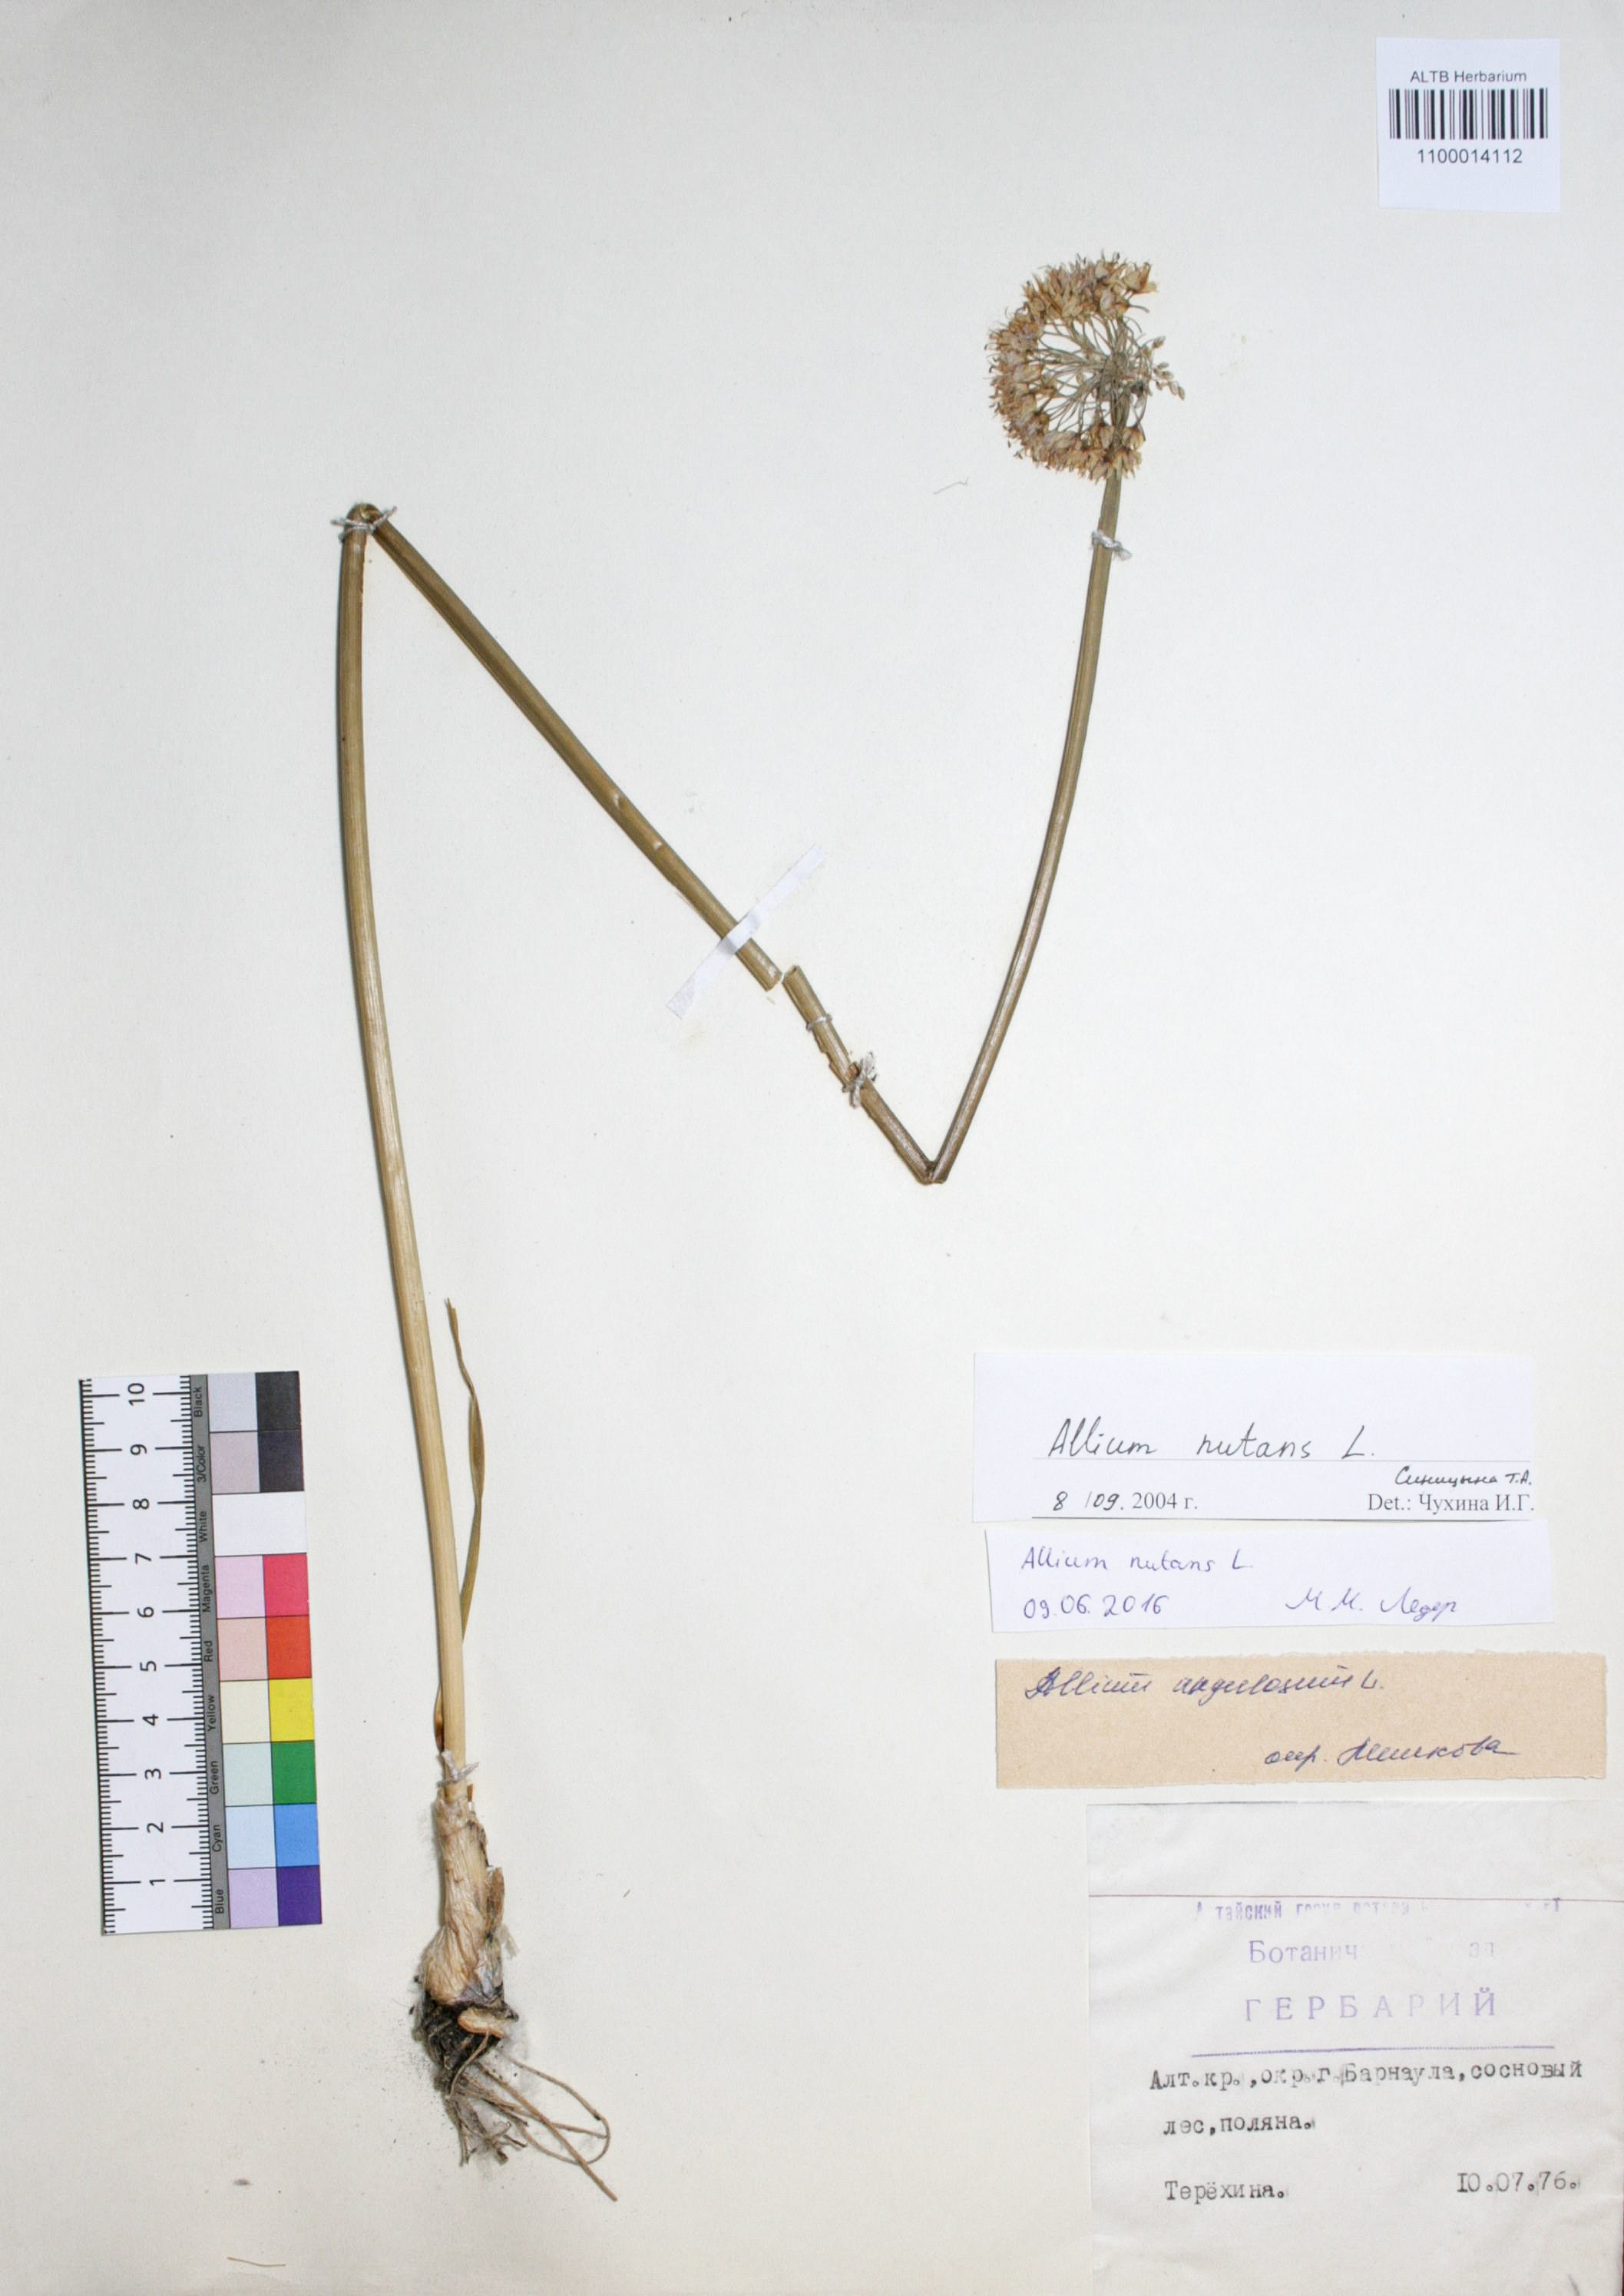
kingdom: Plantae
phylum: Tracheophyta
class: Liliopsida
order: Asparagales
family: Amaryllidaceae
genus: Allium
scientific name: Allium nutans
